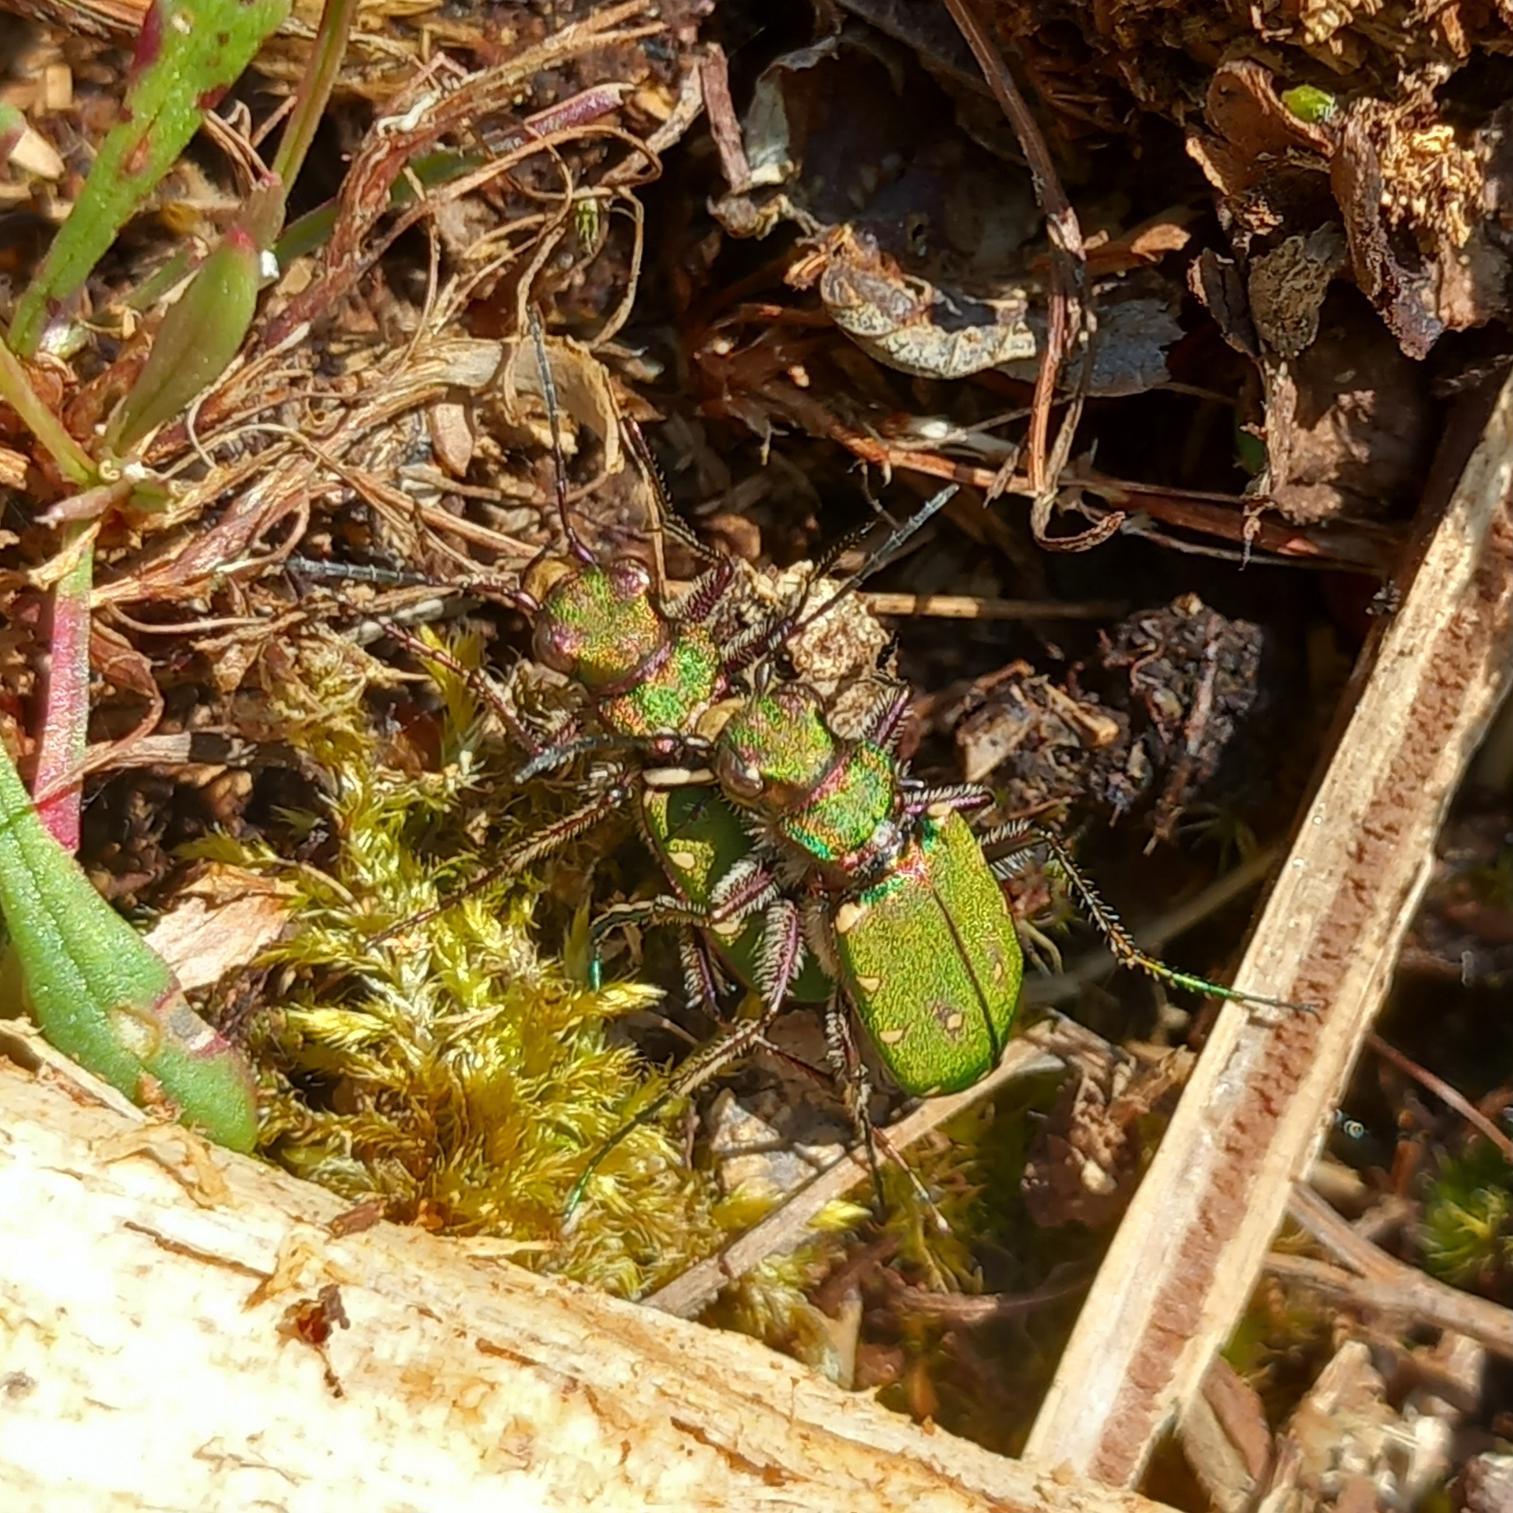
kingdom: Animalia
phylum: Arthropoda
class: Insecta
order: Coleoptera
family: Carabidae
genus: Cicindela
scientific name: Cicindela campestris
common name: Grøn sandspringer
